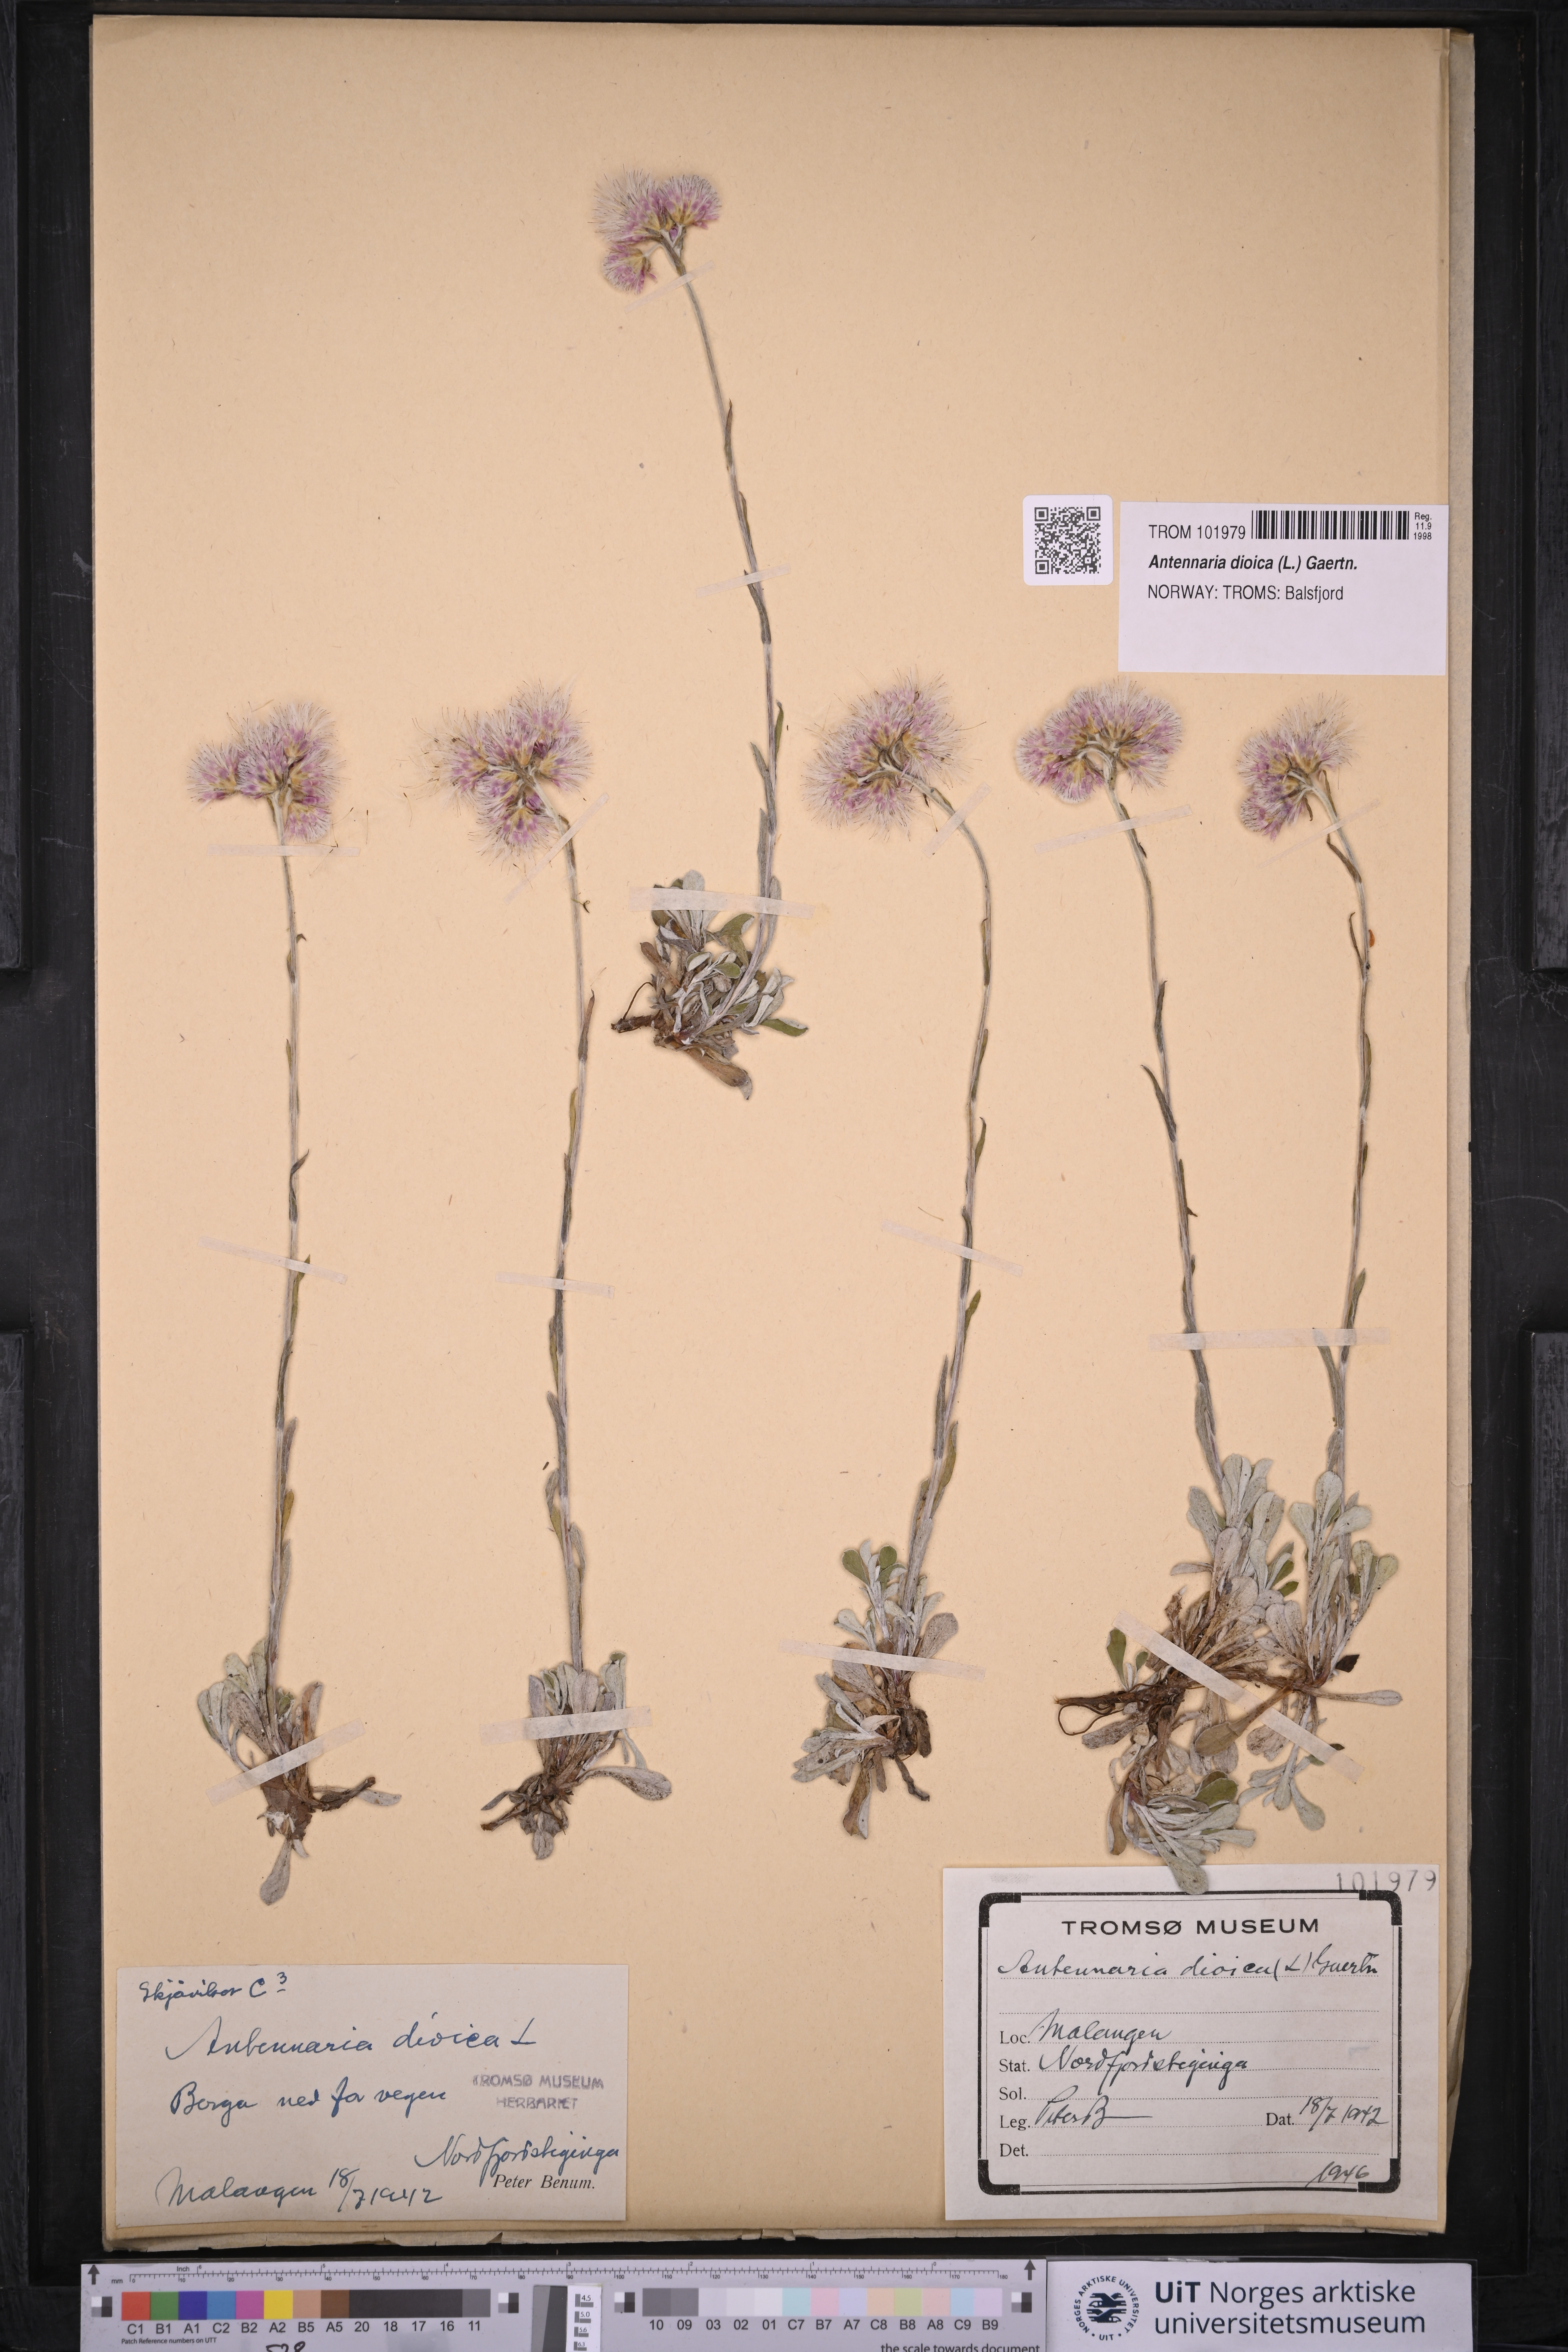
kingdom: Plantae
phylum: Tracheophyta
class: Magnoliopsida
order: Asterales
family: Asteraceae
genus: Antennaria
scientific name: Antennaria dioica
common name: Mountain everlasting
